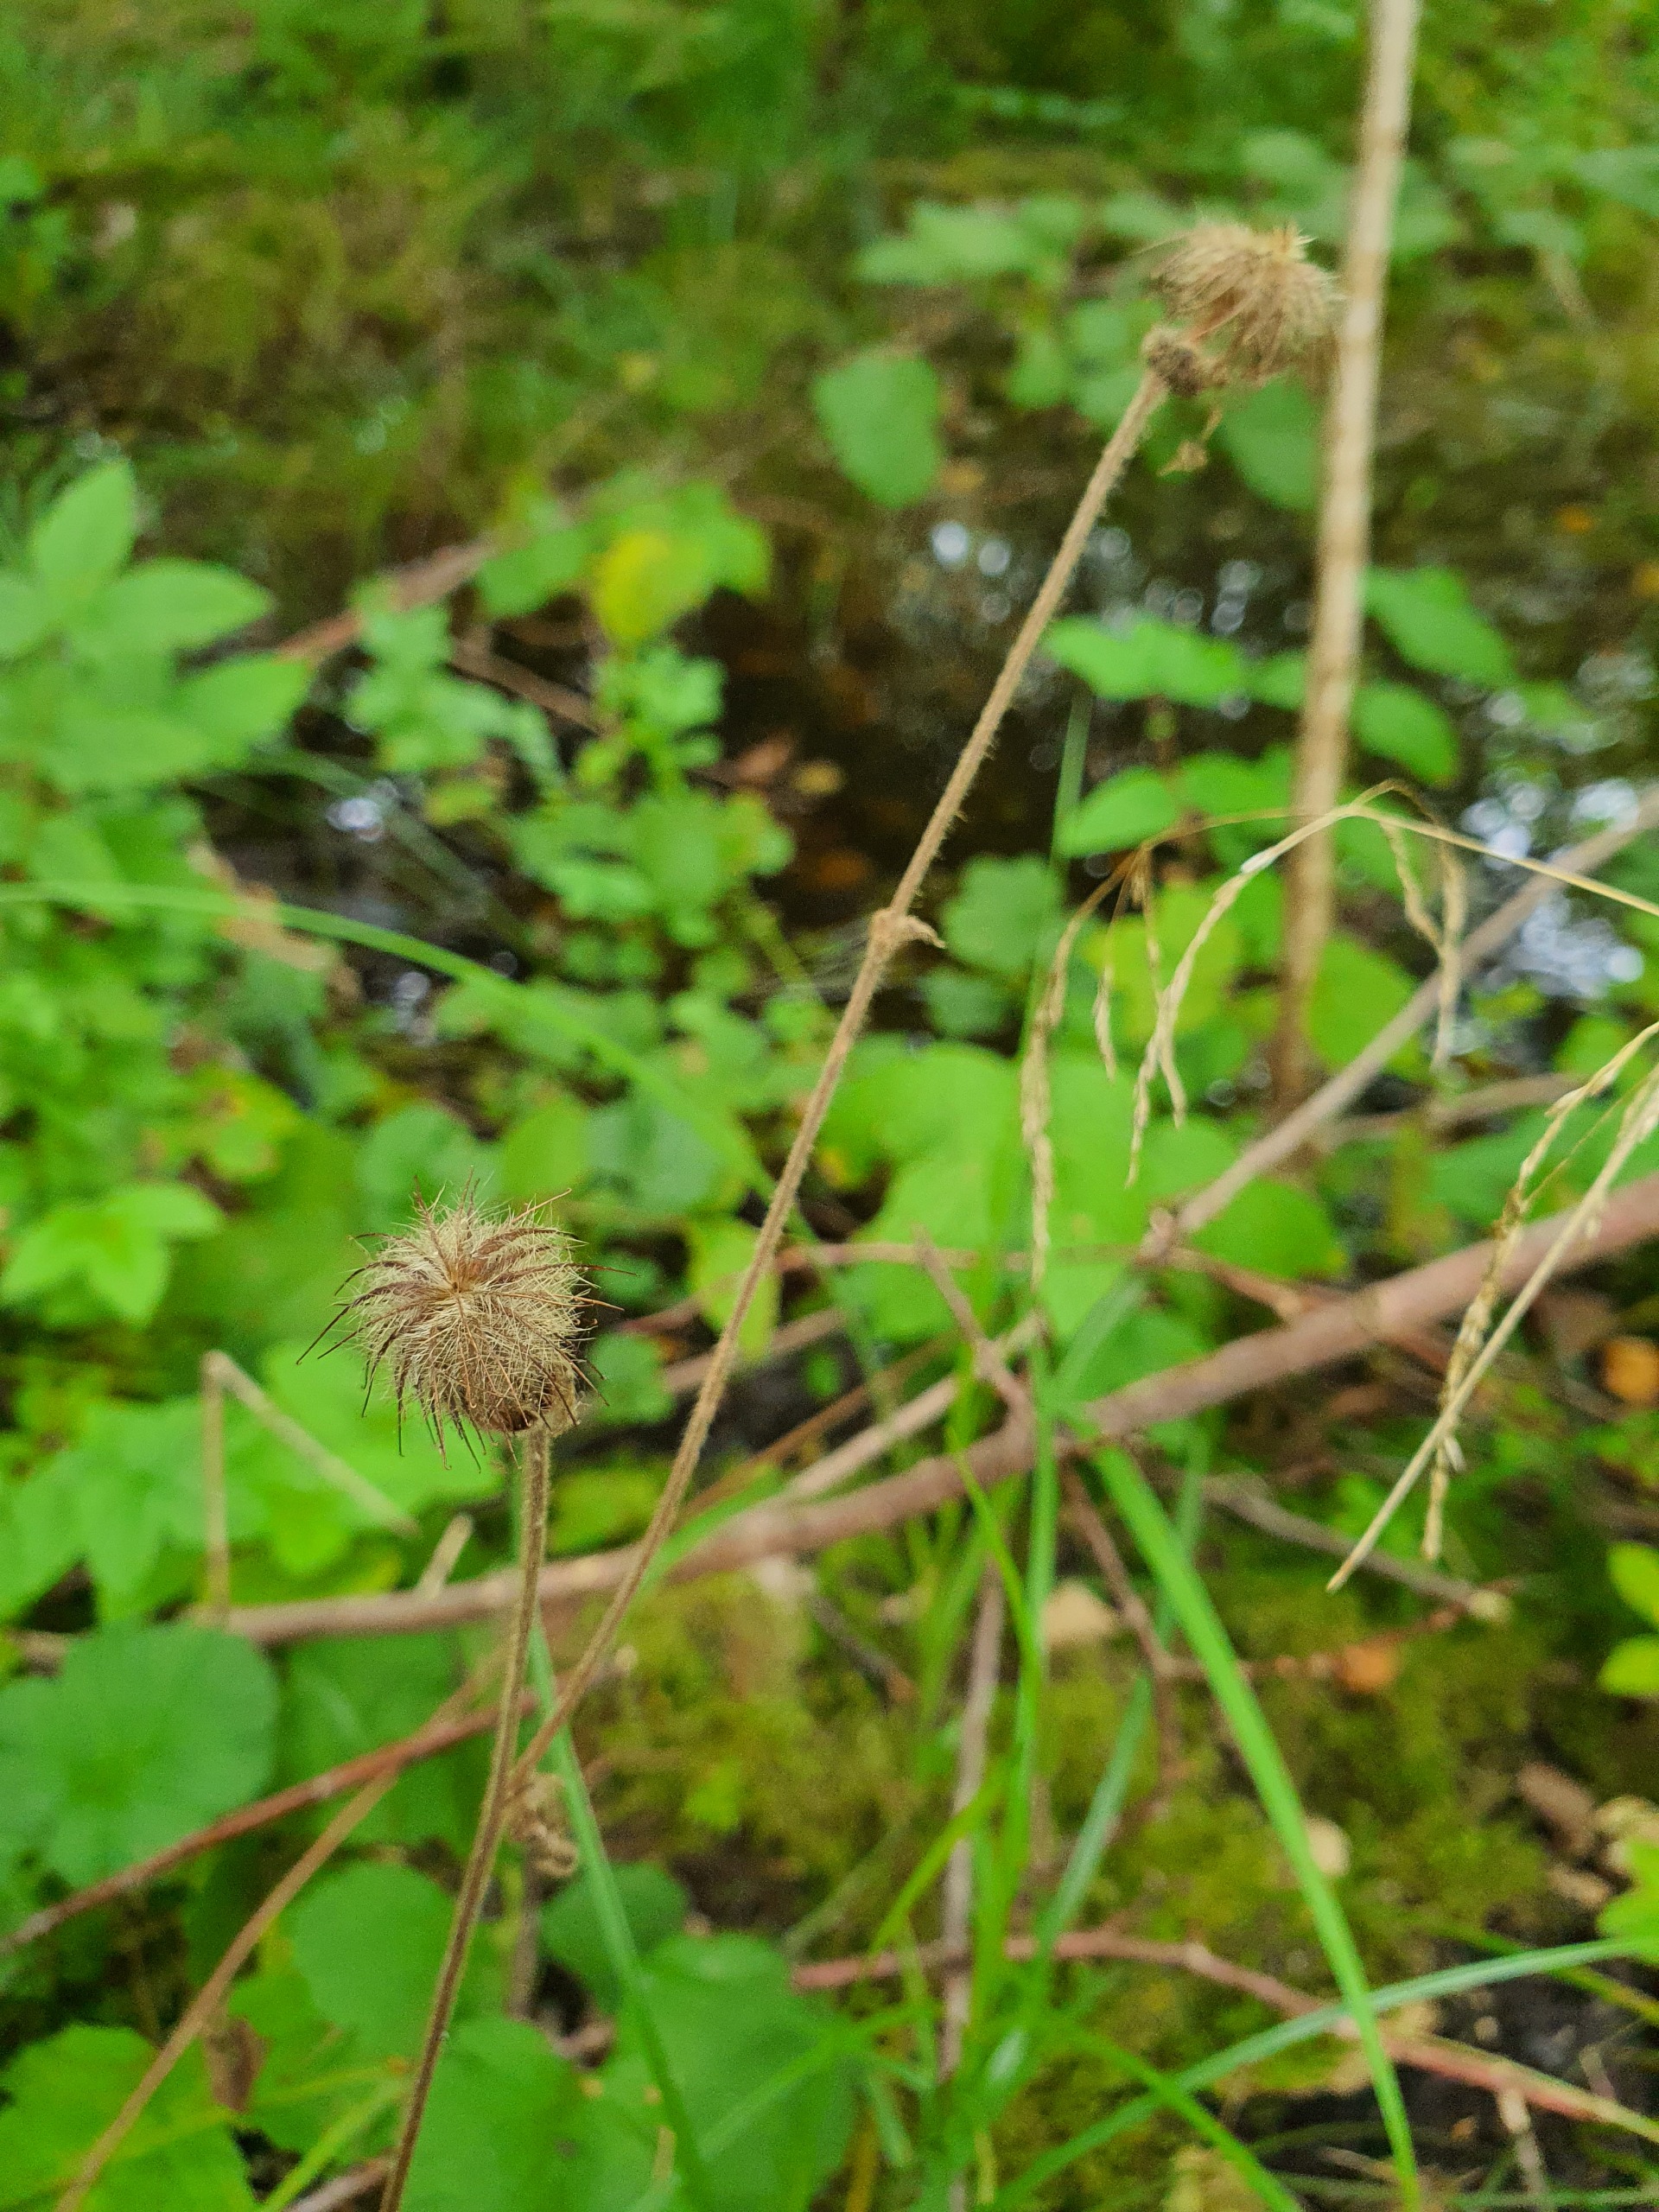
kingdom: Plantae
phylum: Tracheophyta
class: Magnoliopsida
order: Rosales
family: Rosaceae
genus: Geum
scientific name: Geum urbanum
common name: Feber-nellikerod
